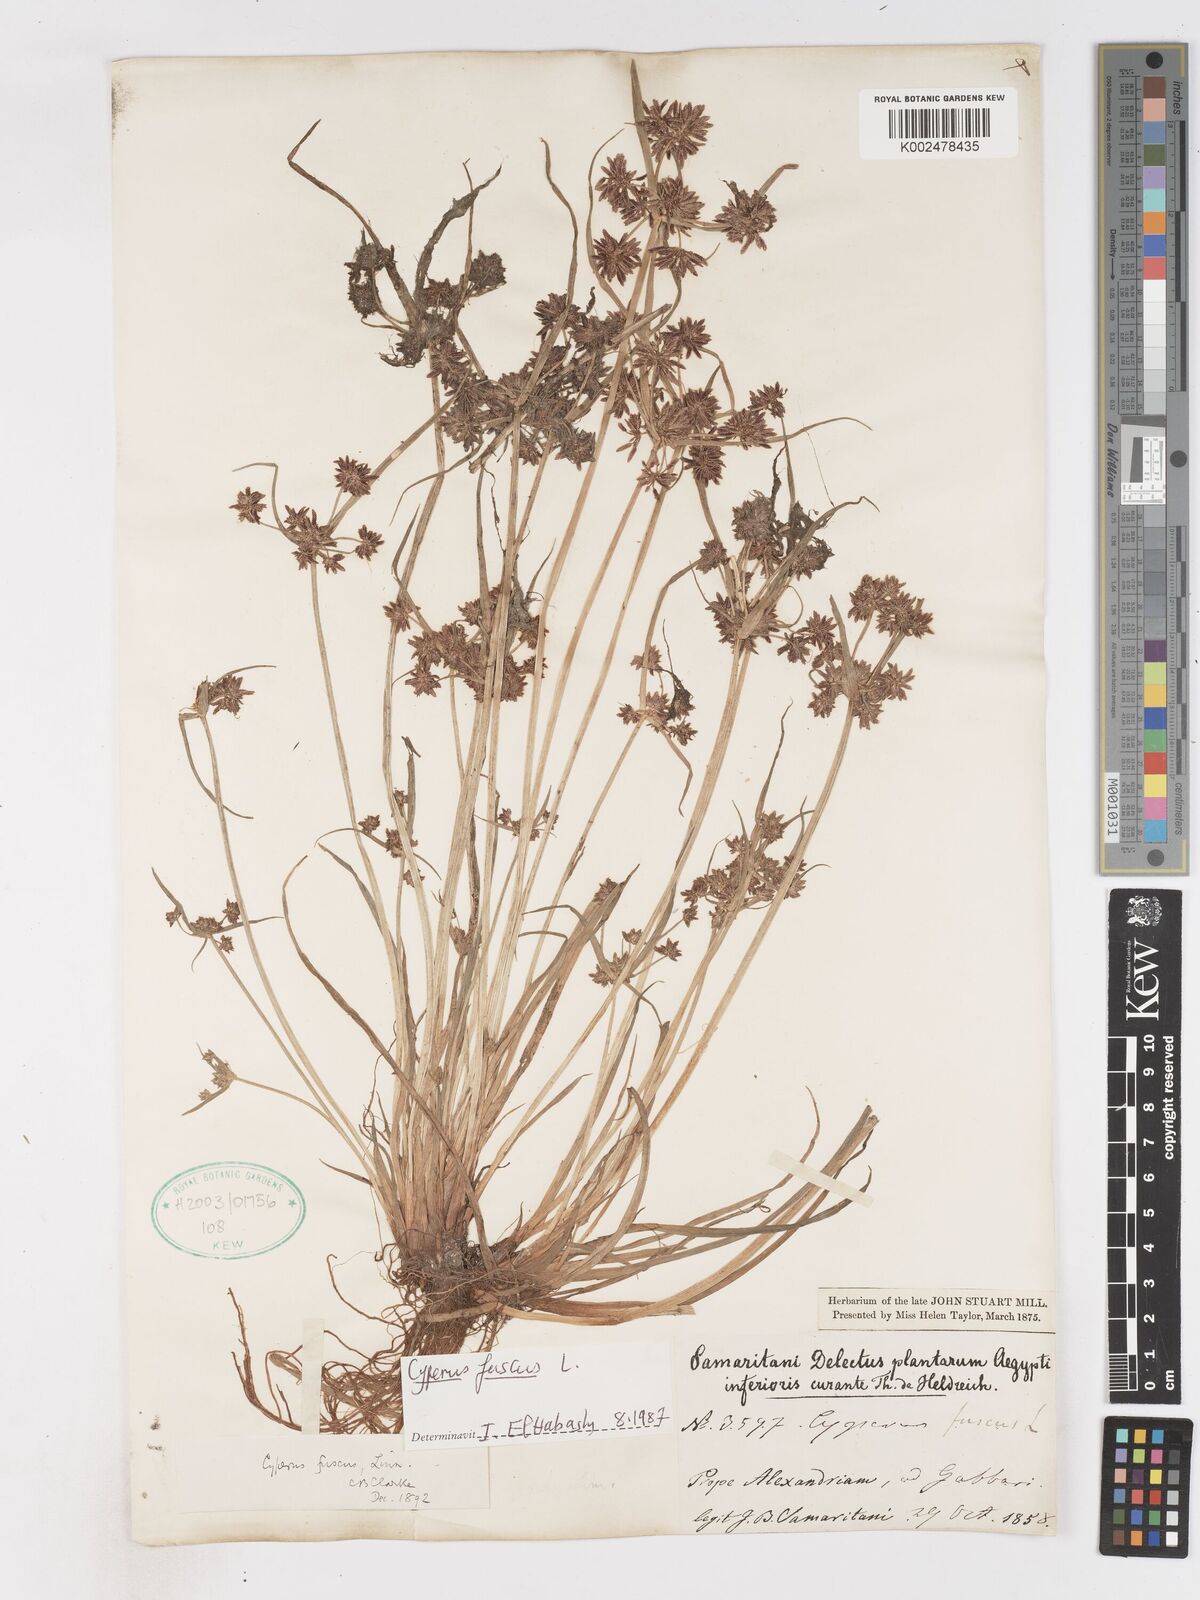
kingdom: Plantae
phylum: Tracheophyta
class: Liliopsida
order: Poales
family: Cyperaceae
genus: Cyperus
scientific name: Cyperus fuscus
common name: Brown galingale
